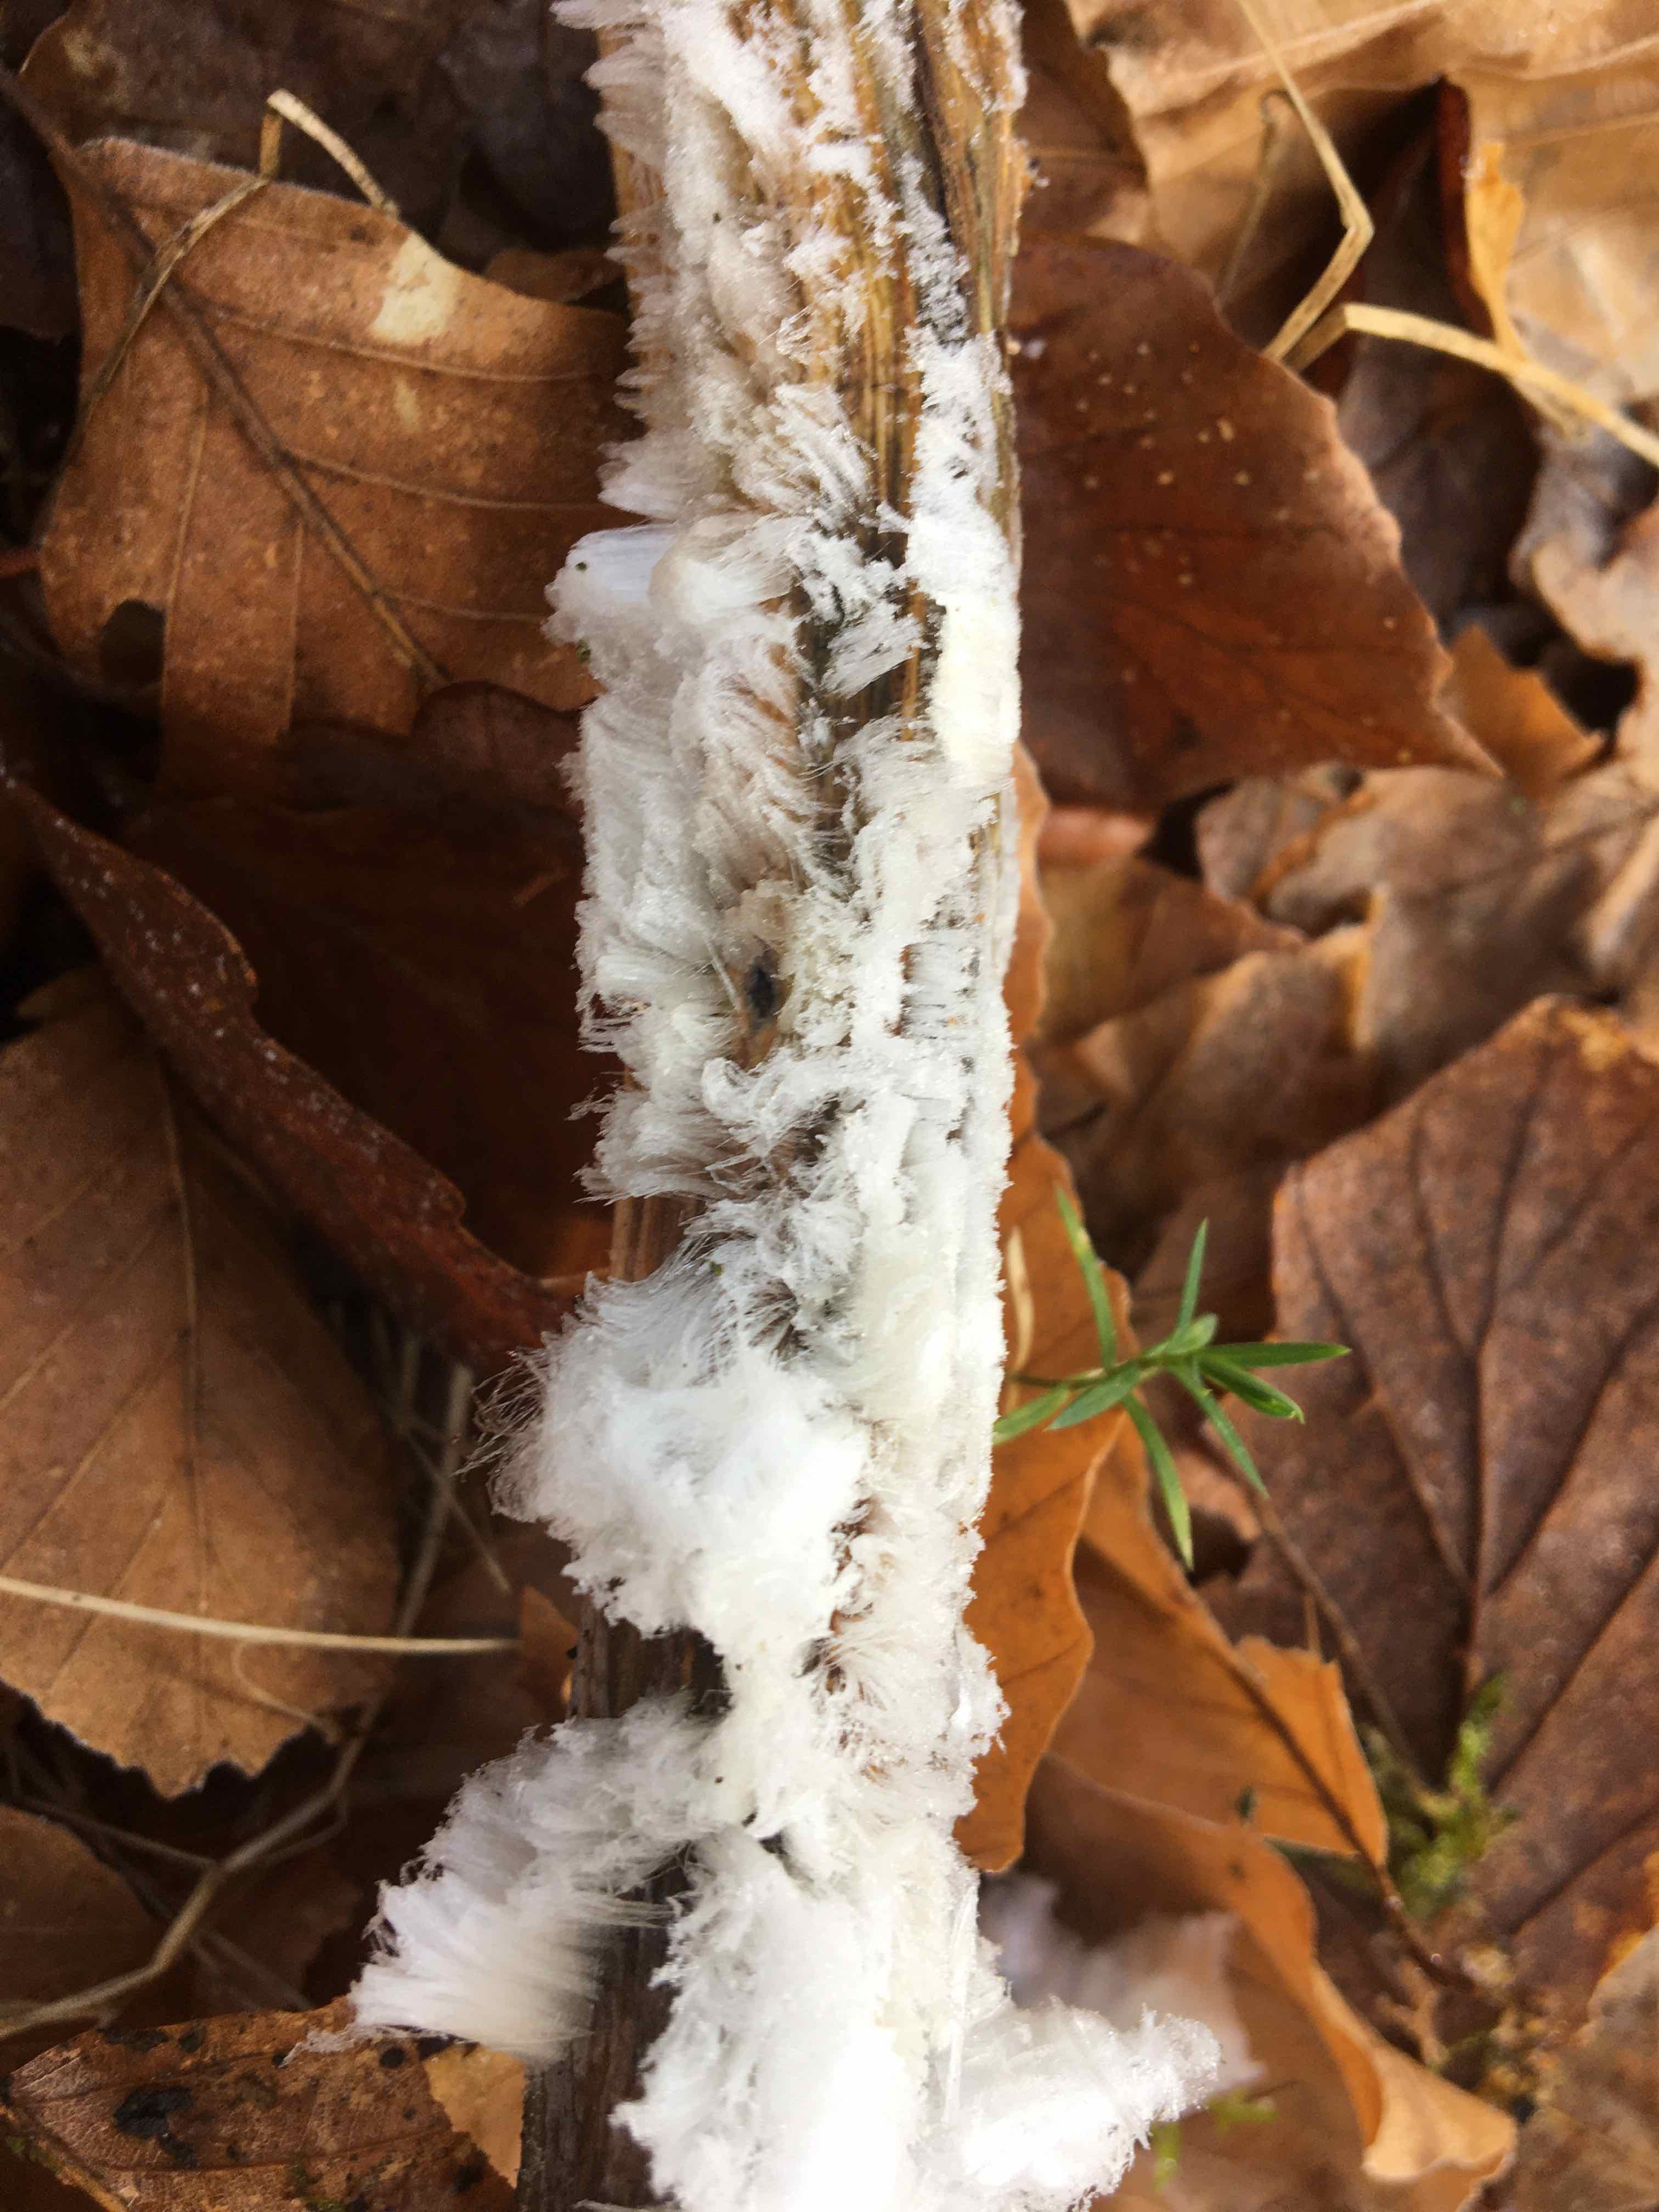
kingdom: Fungi
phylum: Basidiomycota
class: Tremellomycetes
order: Tremellales
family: Exidiaceae
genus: Exidiopsis
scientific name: Exidiopsis effusa
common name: smuk bævrehinde
